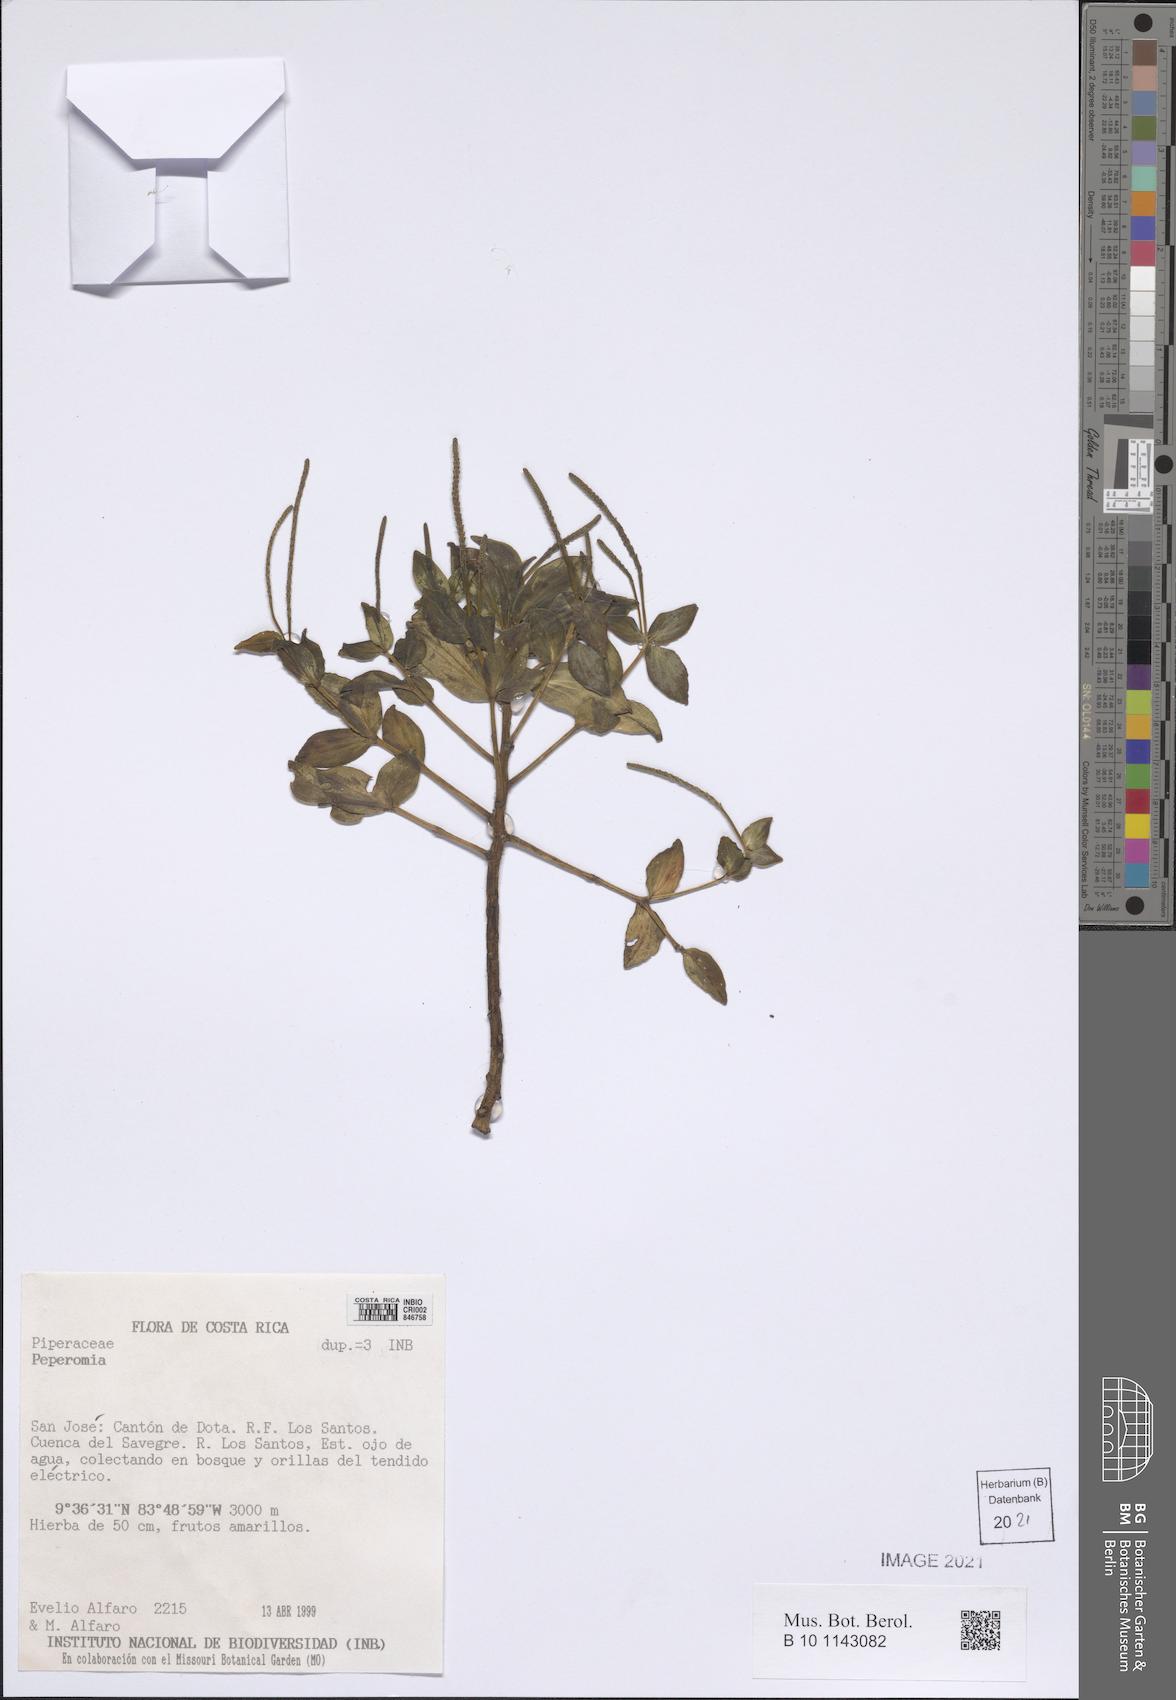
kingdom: Plantae
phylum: Tracheophyta
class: Magnoliopsida
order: Piperales
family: Piperaceae
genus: Peperomia
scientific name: Peperomia
